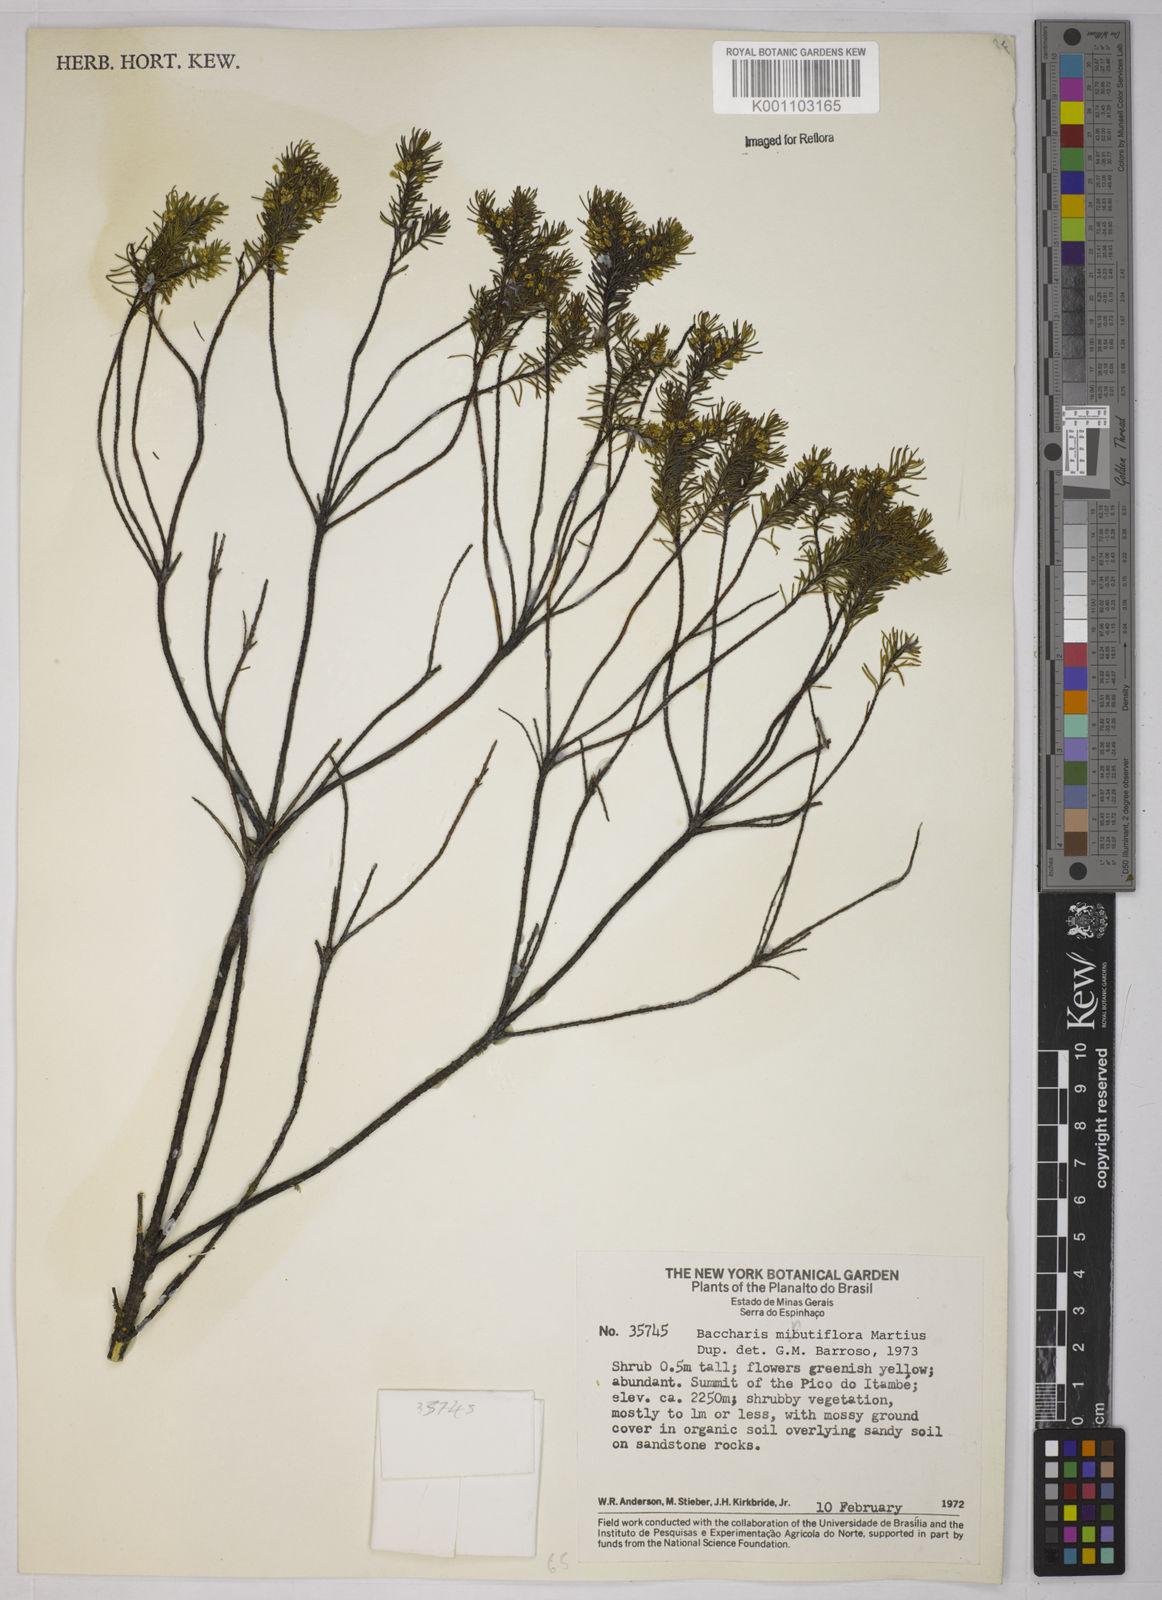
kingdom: Plantae
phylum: Tracheophyta
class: Magnoliopsida
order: Asterales
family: Asteraceae
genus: Baccharis
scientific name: Baccharis minutiflora
